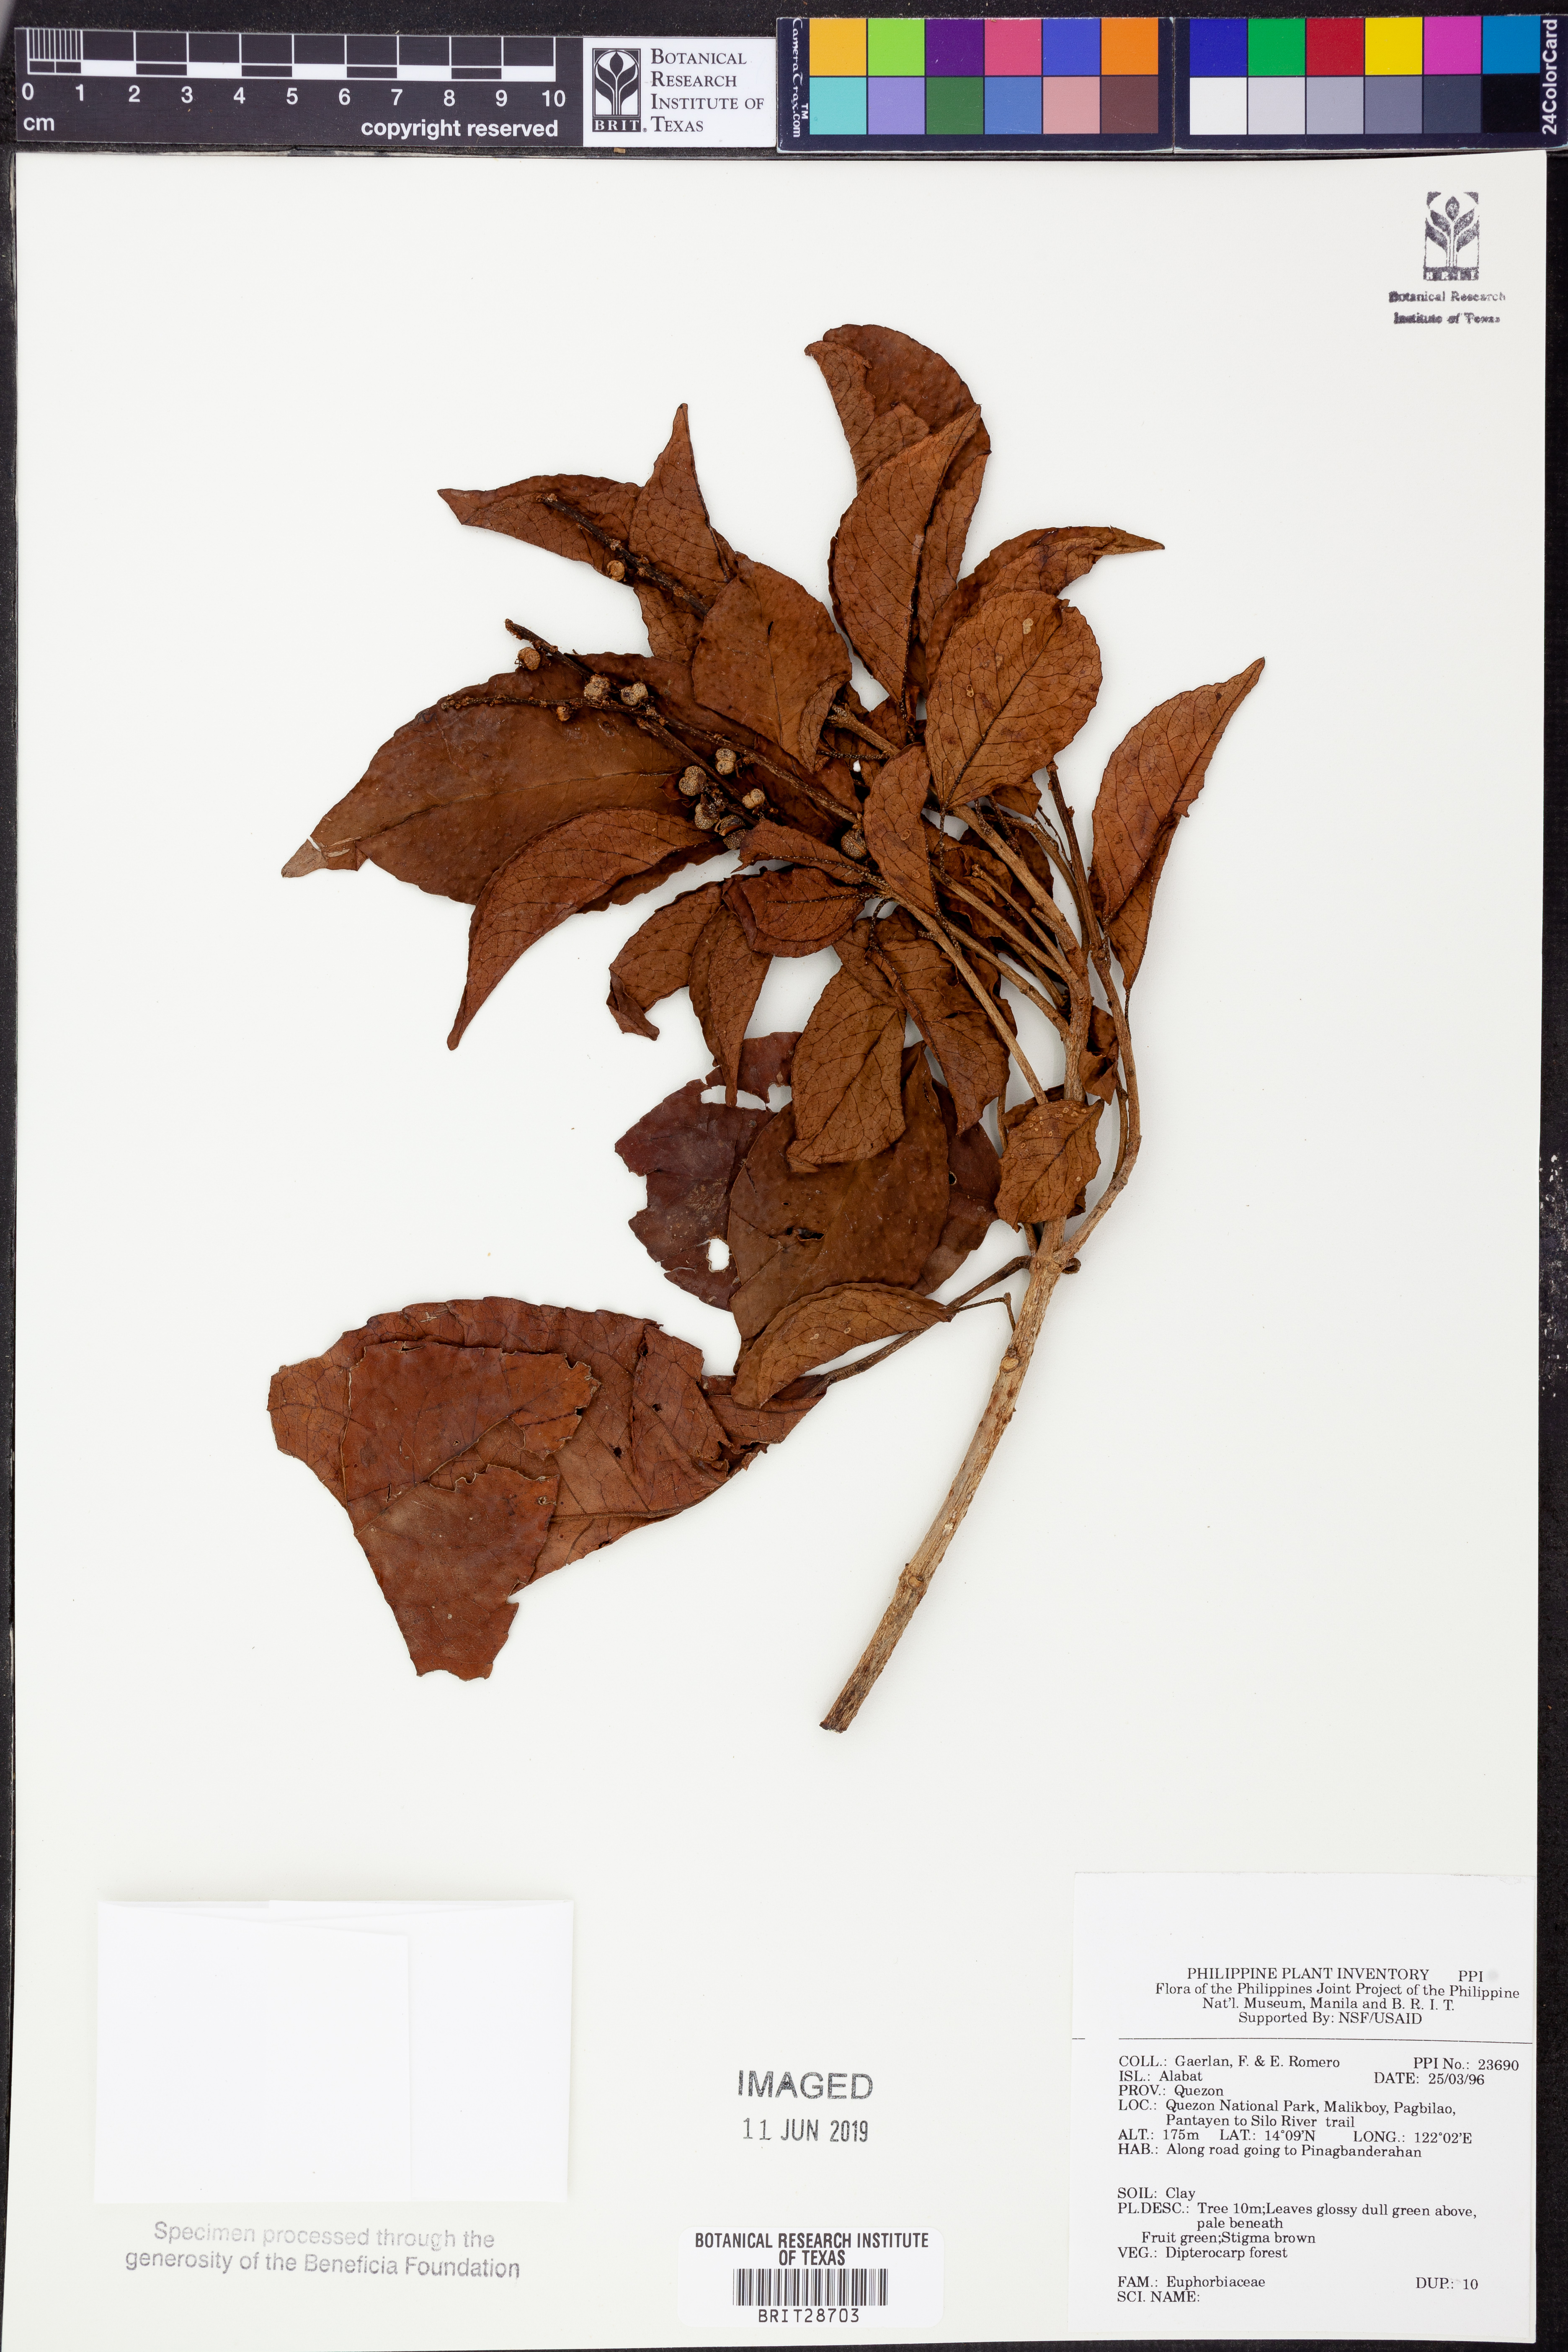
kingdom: Plantae
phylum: Tracheophyta
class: Magnoliopsida
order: Malpighiales
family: Euphorbiaceae
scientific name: Euphorbiaceae
